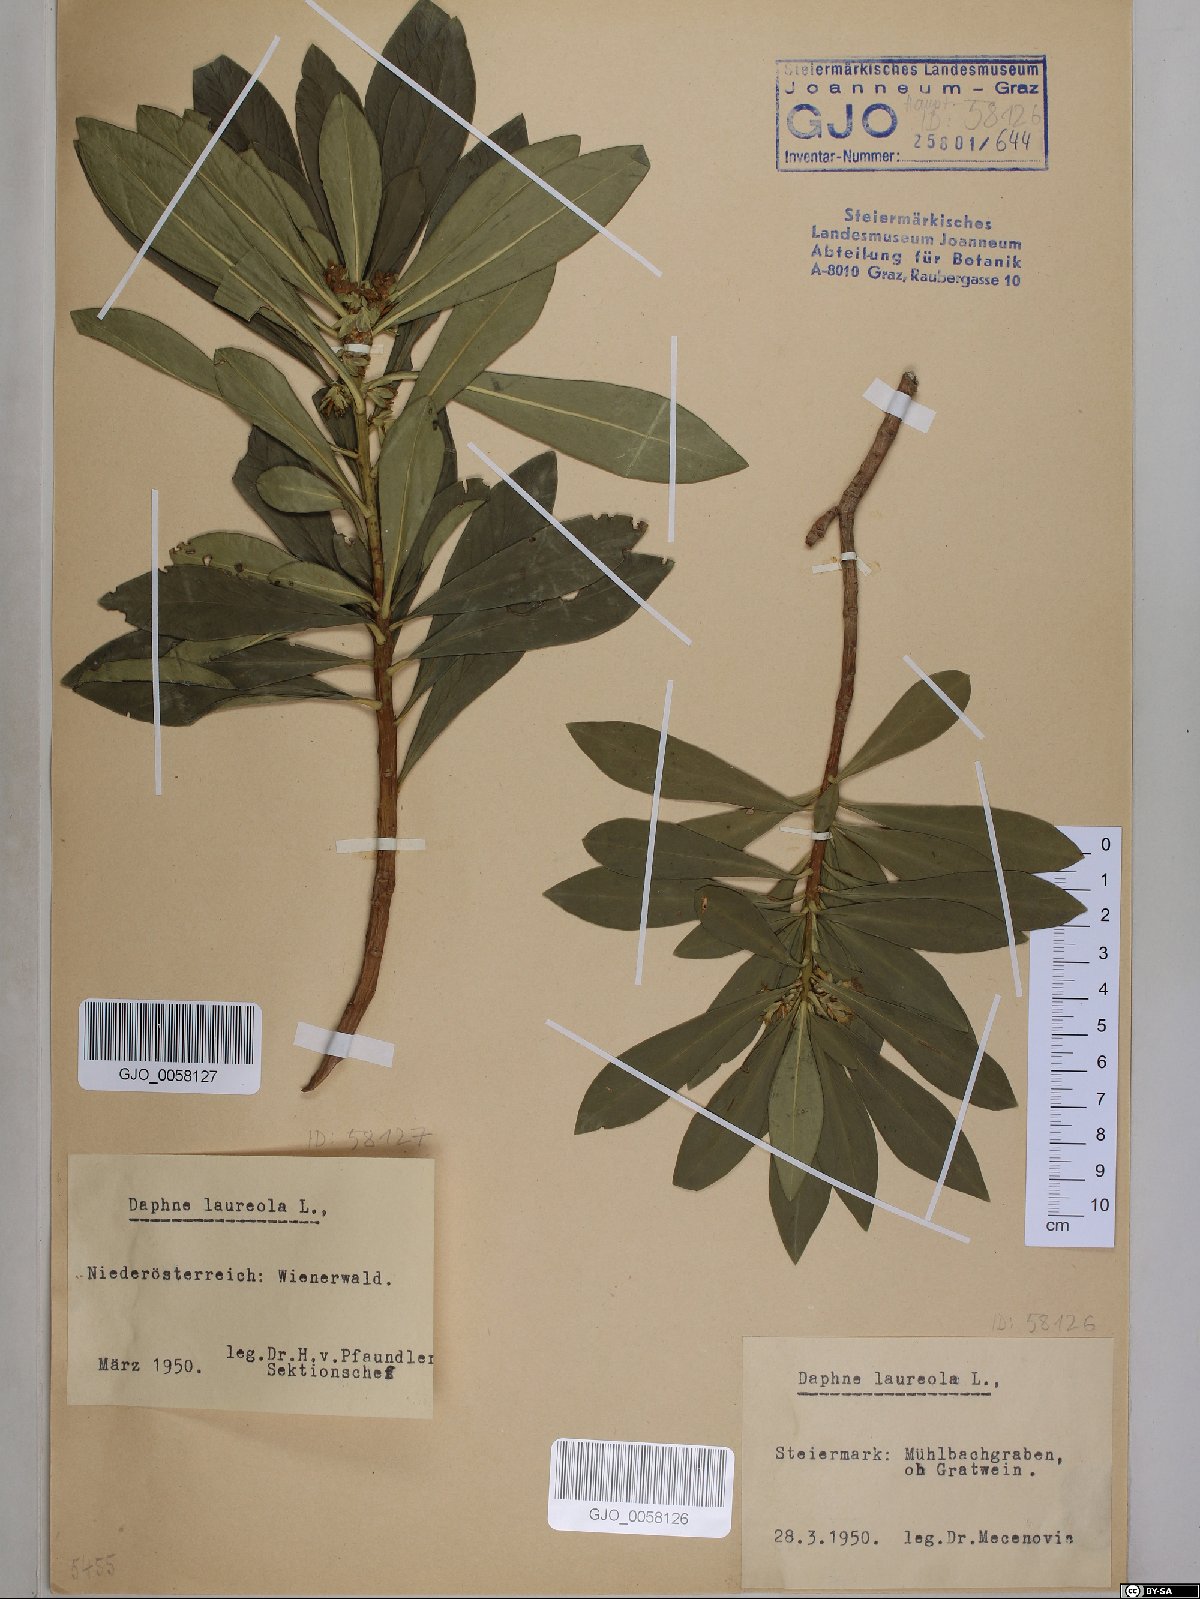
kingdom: Plantae
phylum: Tracheophyta
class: Magnoliopsida
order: Malvales
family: Thymelaeaceae
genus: Daphne
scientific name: Daphne laureola
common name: Spurge-laurel
